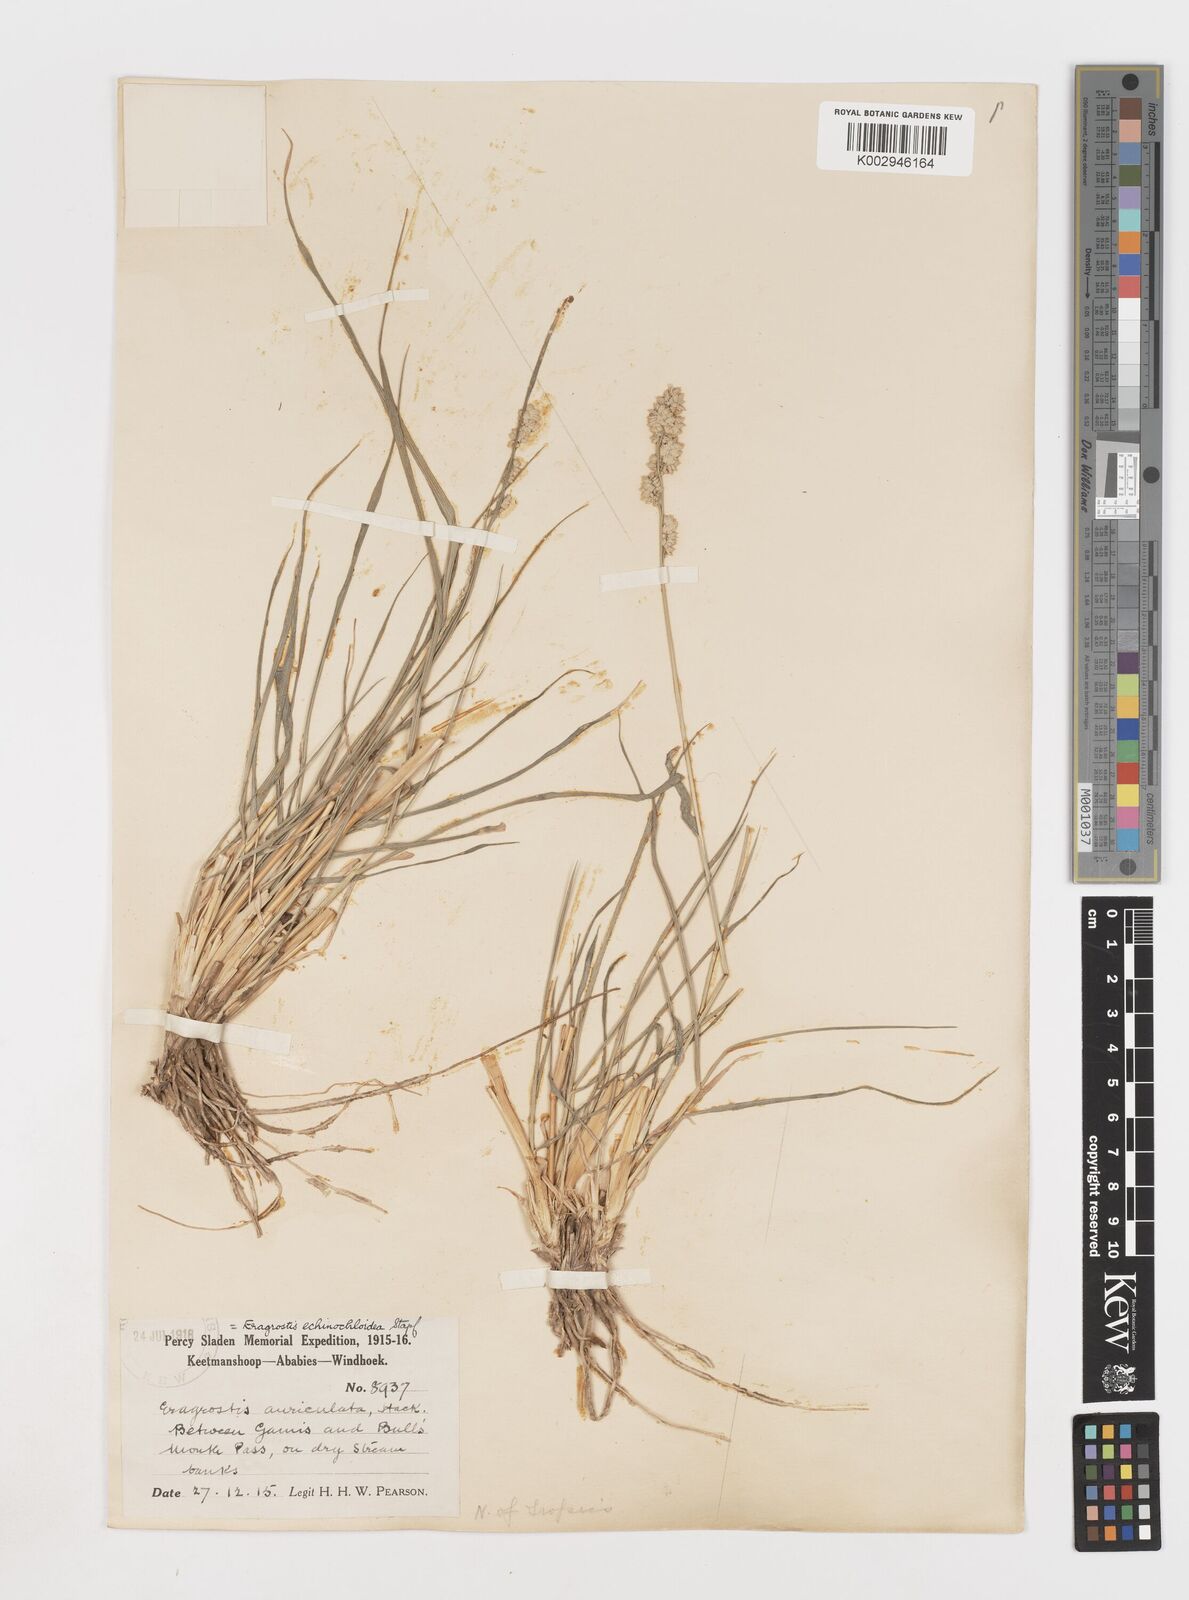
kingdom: Plantae
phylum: Tracheophyta
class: Liliopsida
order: Poales
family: Poaceae
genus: Eragrostis
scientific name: Eragrostis echinochloidea
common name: African lovegrass
